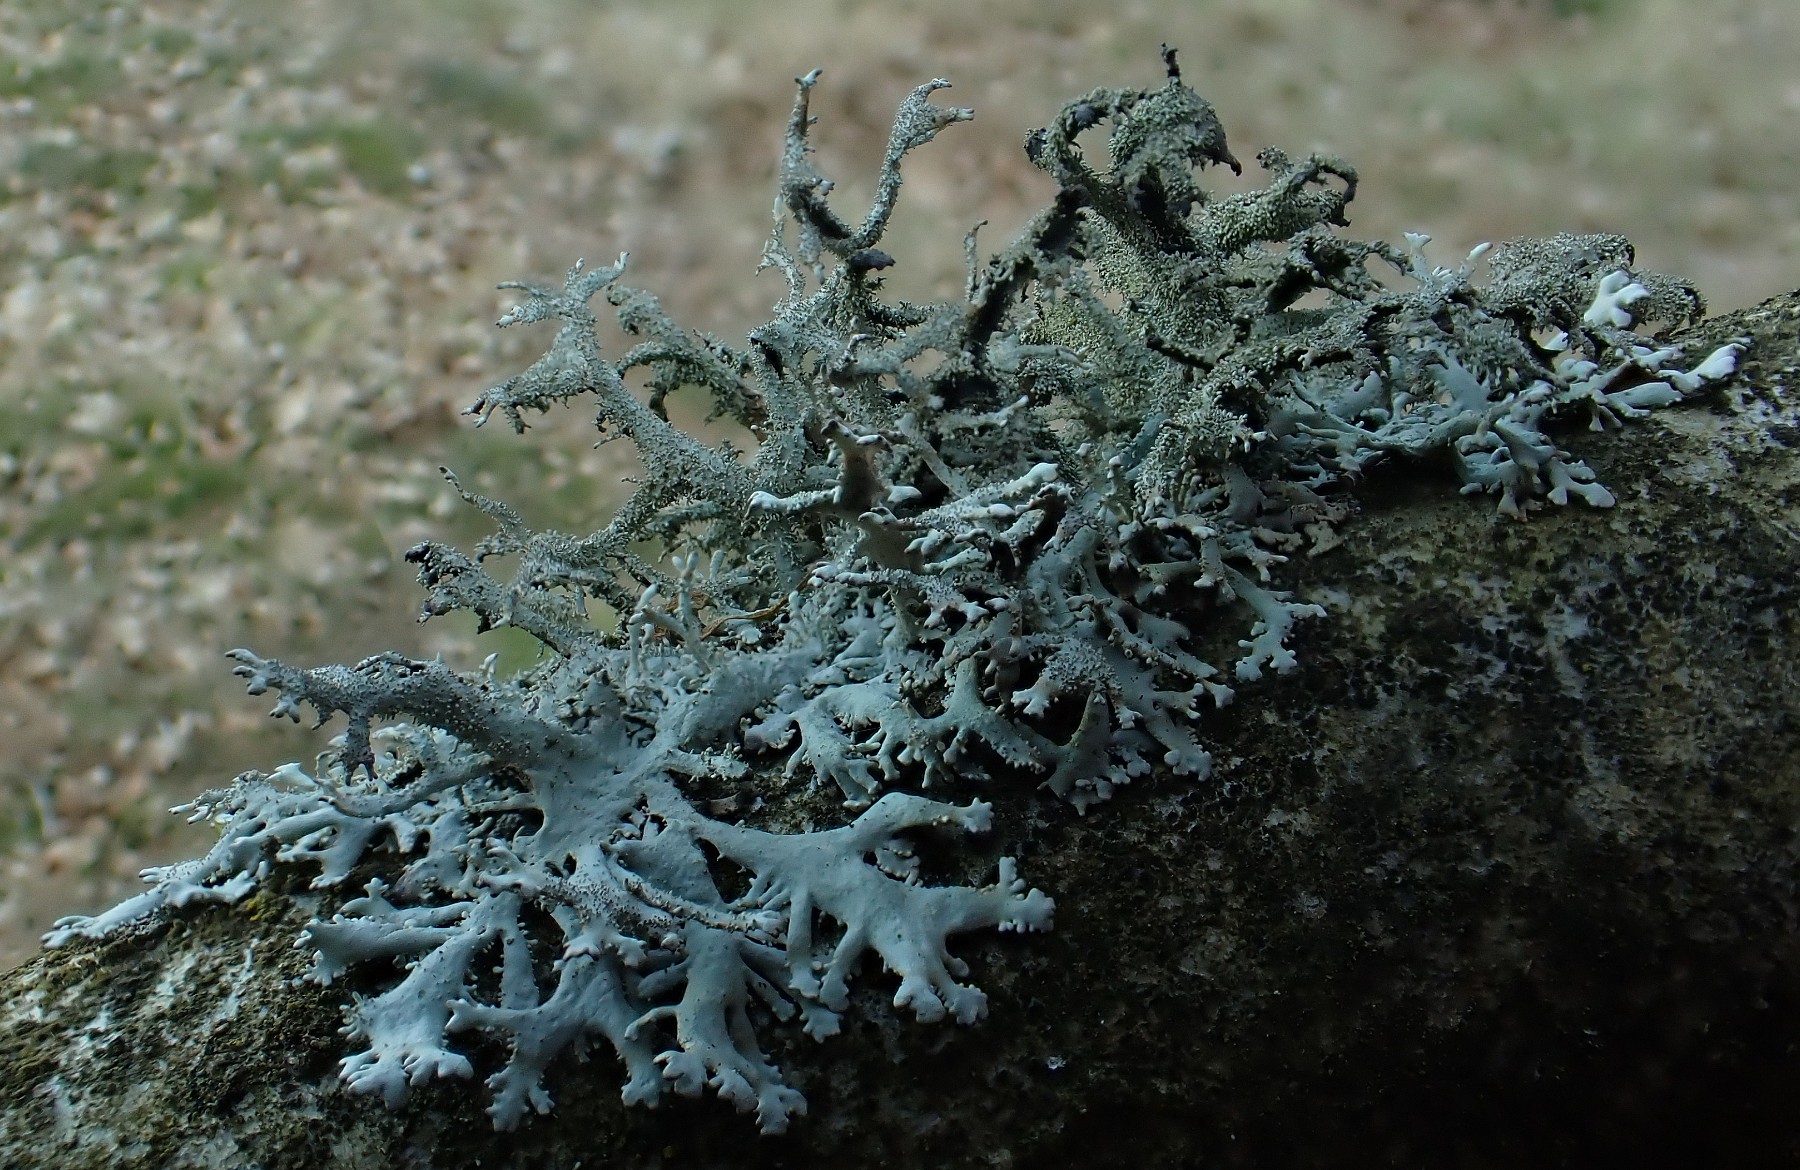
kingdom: Fungi
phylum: Ascomycota
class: Lecanoromycetes
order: Lecanorales
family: Parmeliaceae
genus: Pseudevernia
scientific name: Pseudevernia furfuracea
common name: grå fyrrelav
